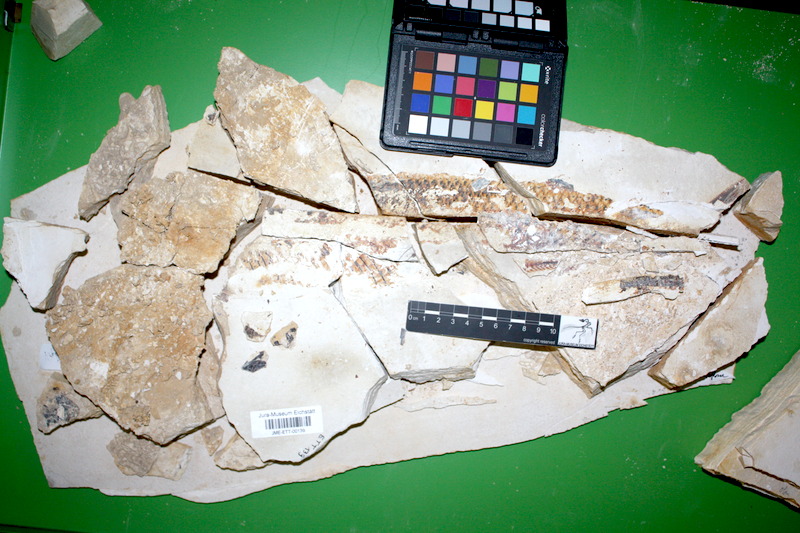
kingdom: Animalia
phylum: Chordata
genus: Thrissops
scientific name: Thrissops formosus
